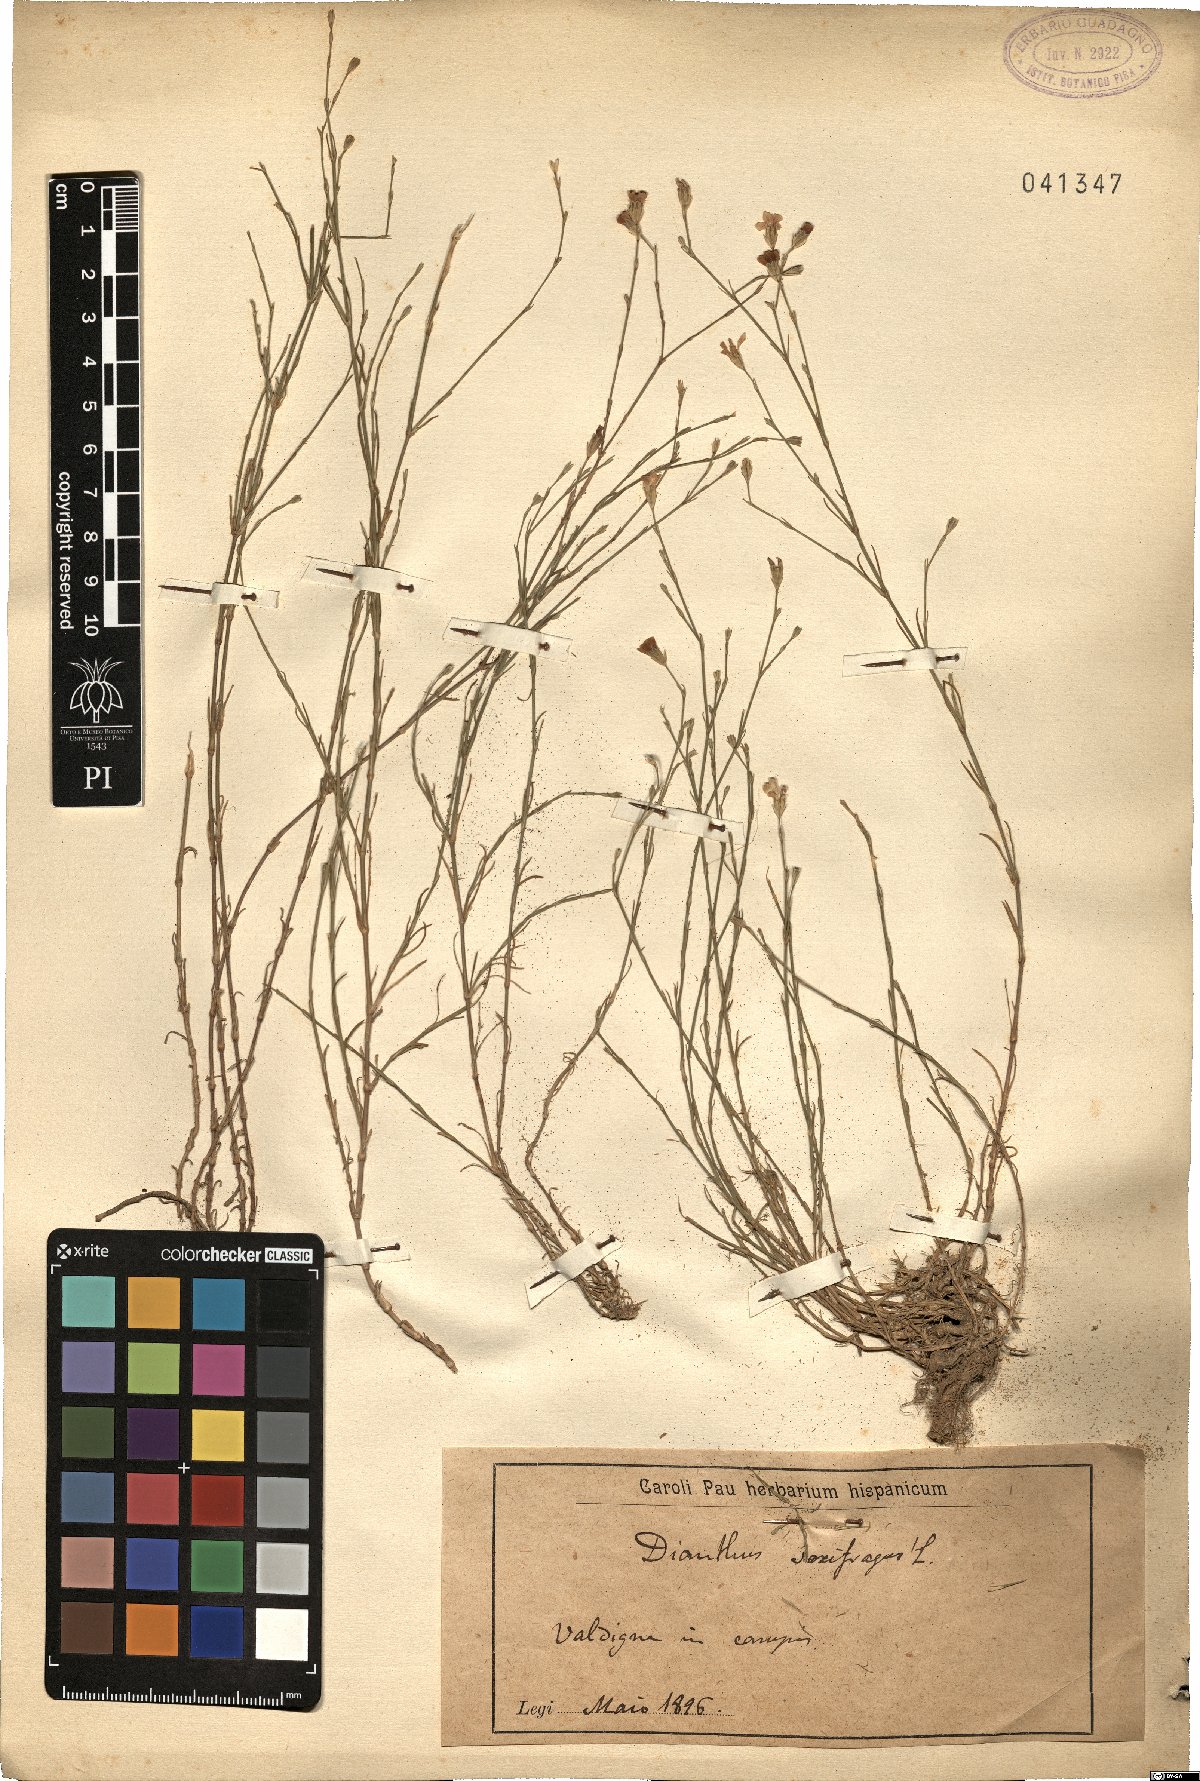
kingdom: Plantae
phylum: Tracheophyta
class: Magnoliopsida
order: Caryophyllales
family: Caryophyllaceae
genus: Petrorhagia
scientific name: Petrorhagia saxifraga
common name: Tunicflower
